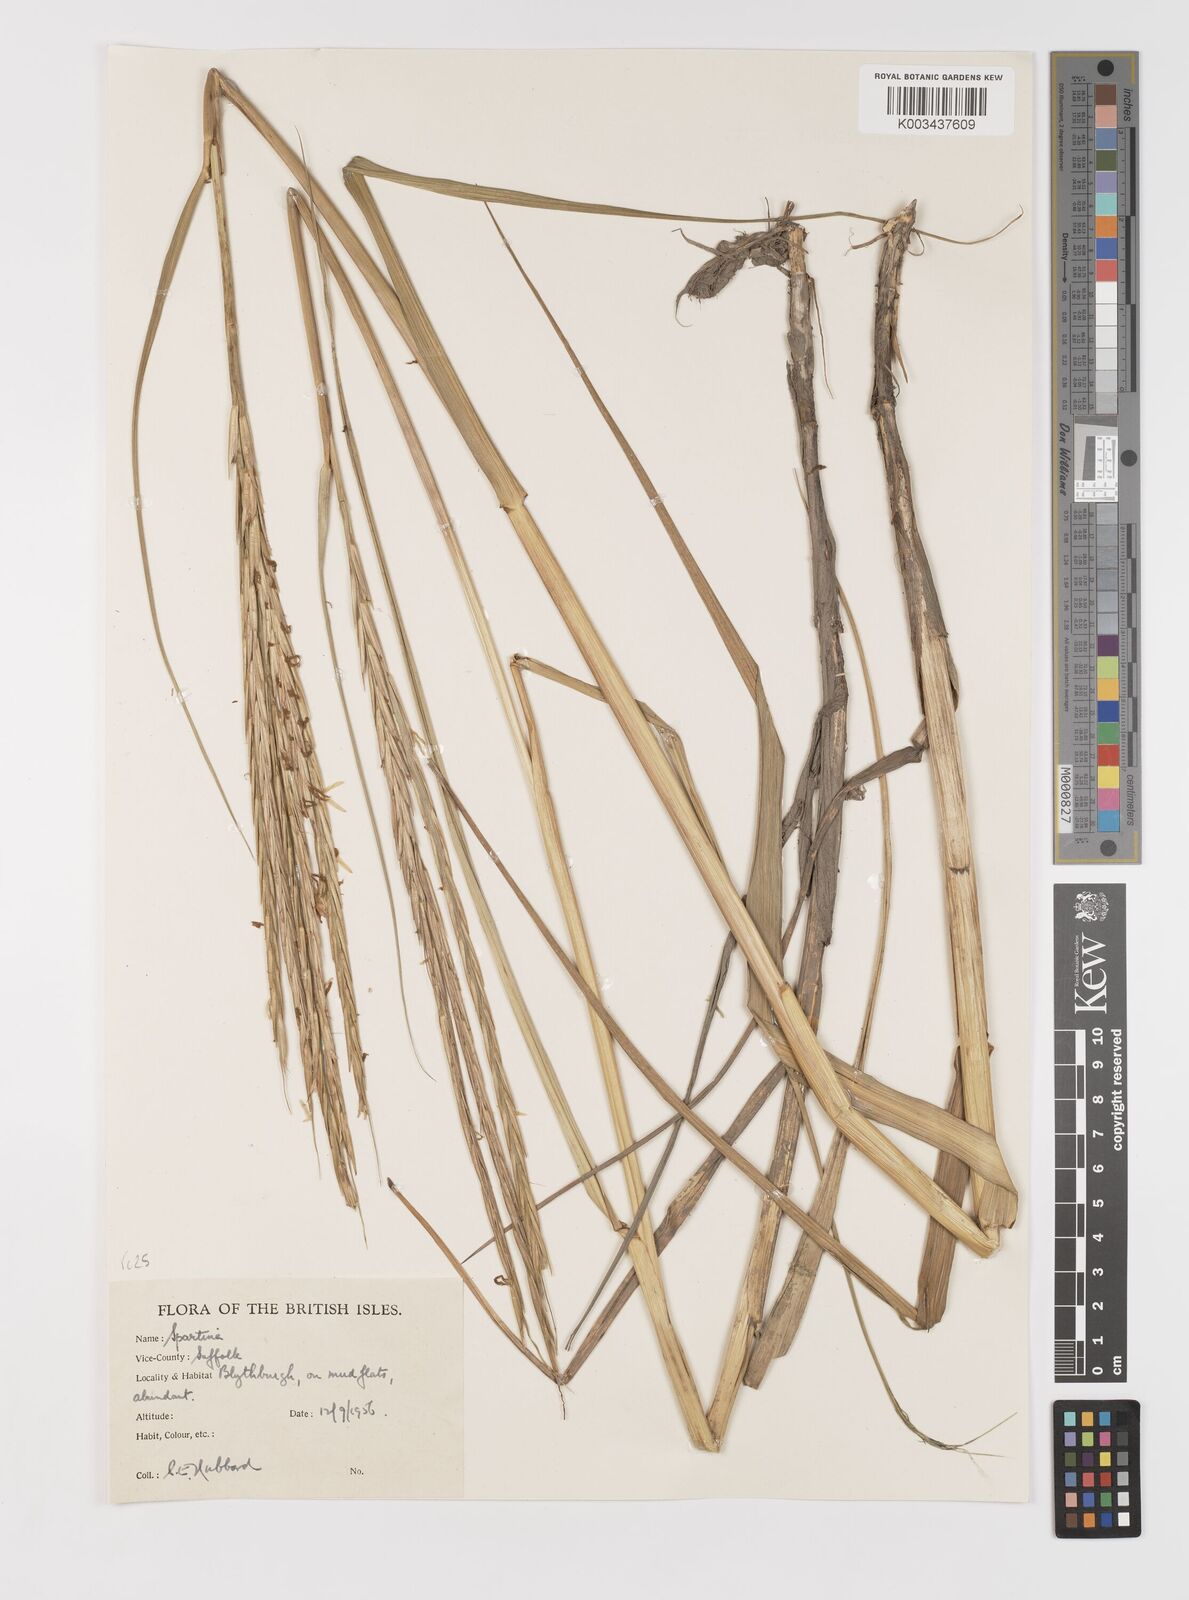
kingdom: Plantae
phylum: Tracheophyta
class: Liliopsida
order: Poales
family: Poaceae
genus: Sporobolus
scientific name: Sporobolus anglicus
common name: English cordgrass
